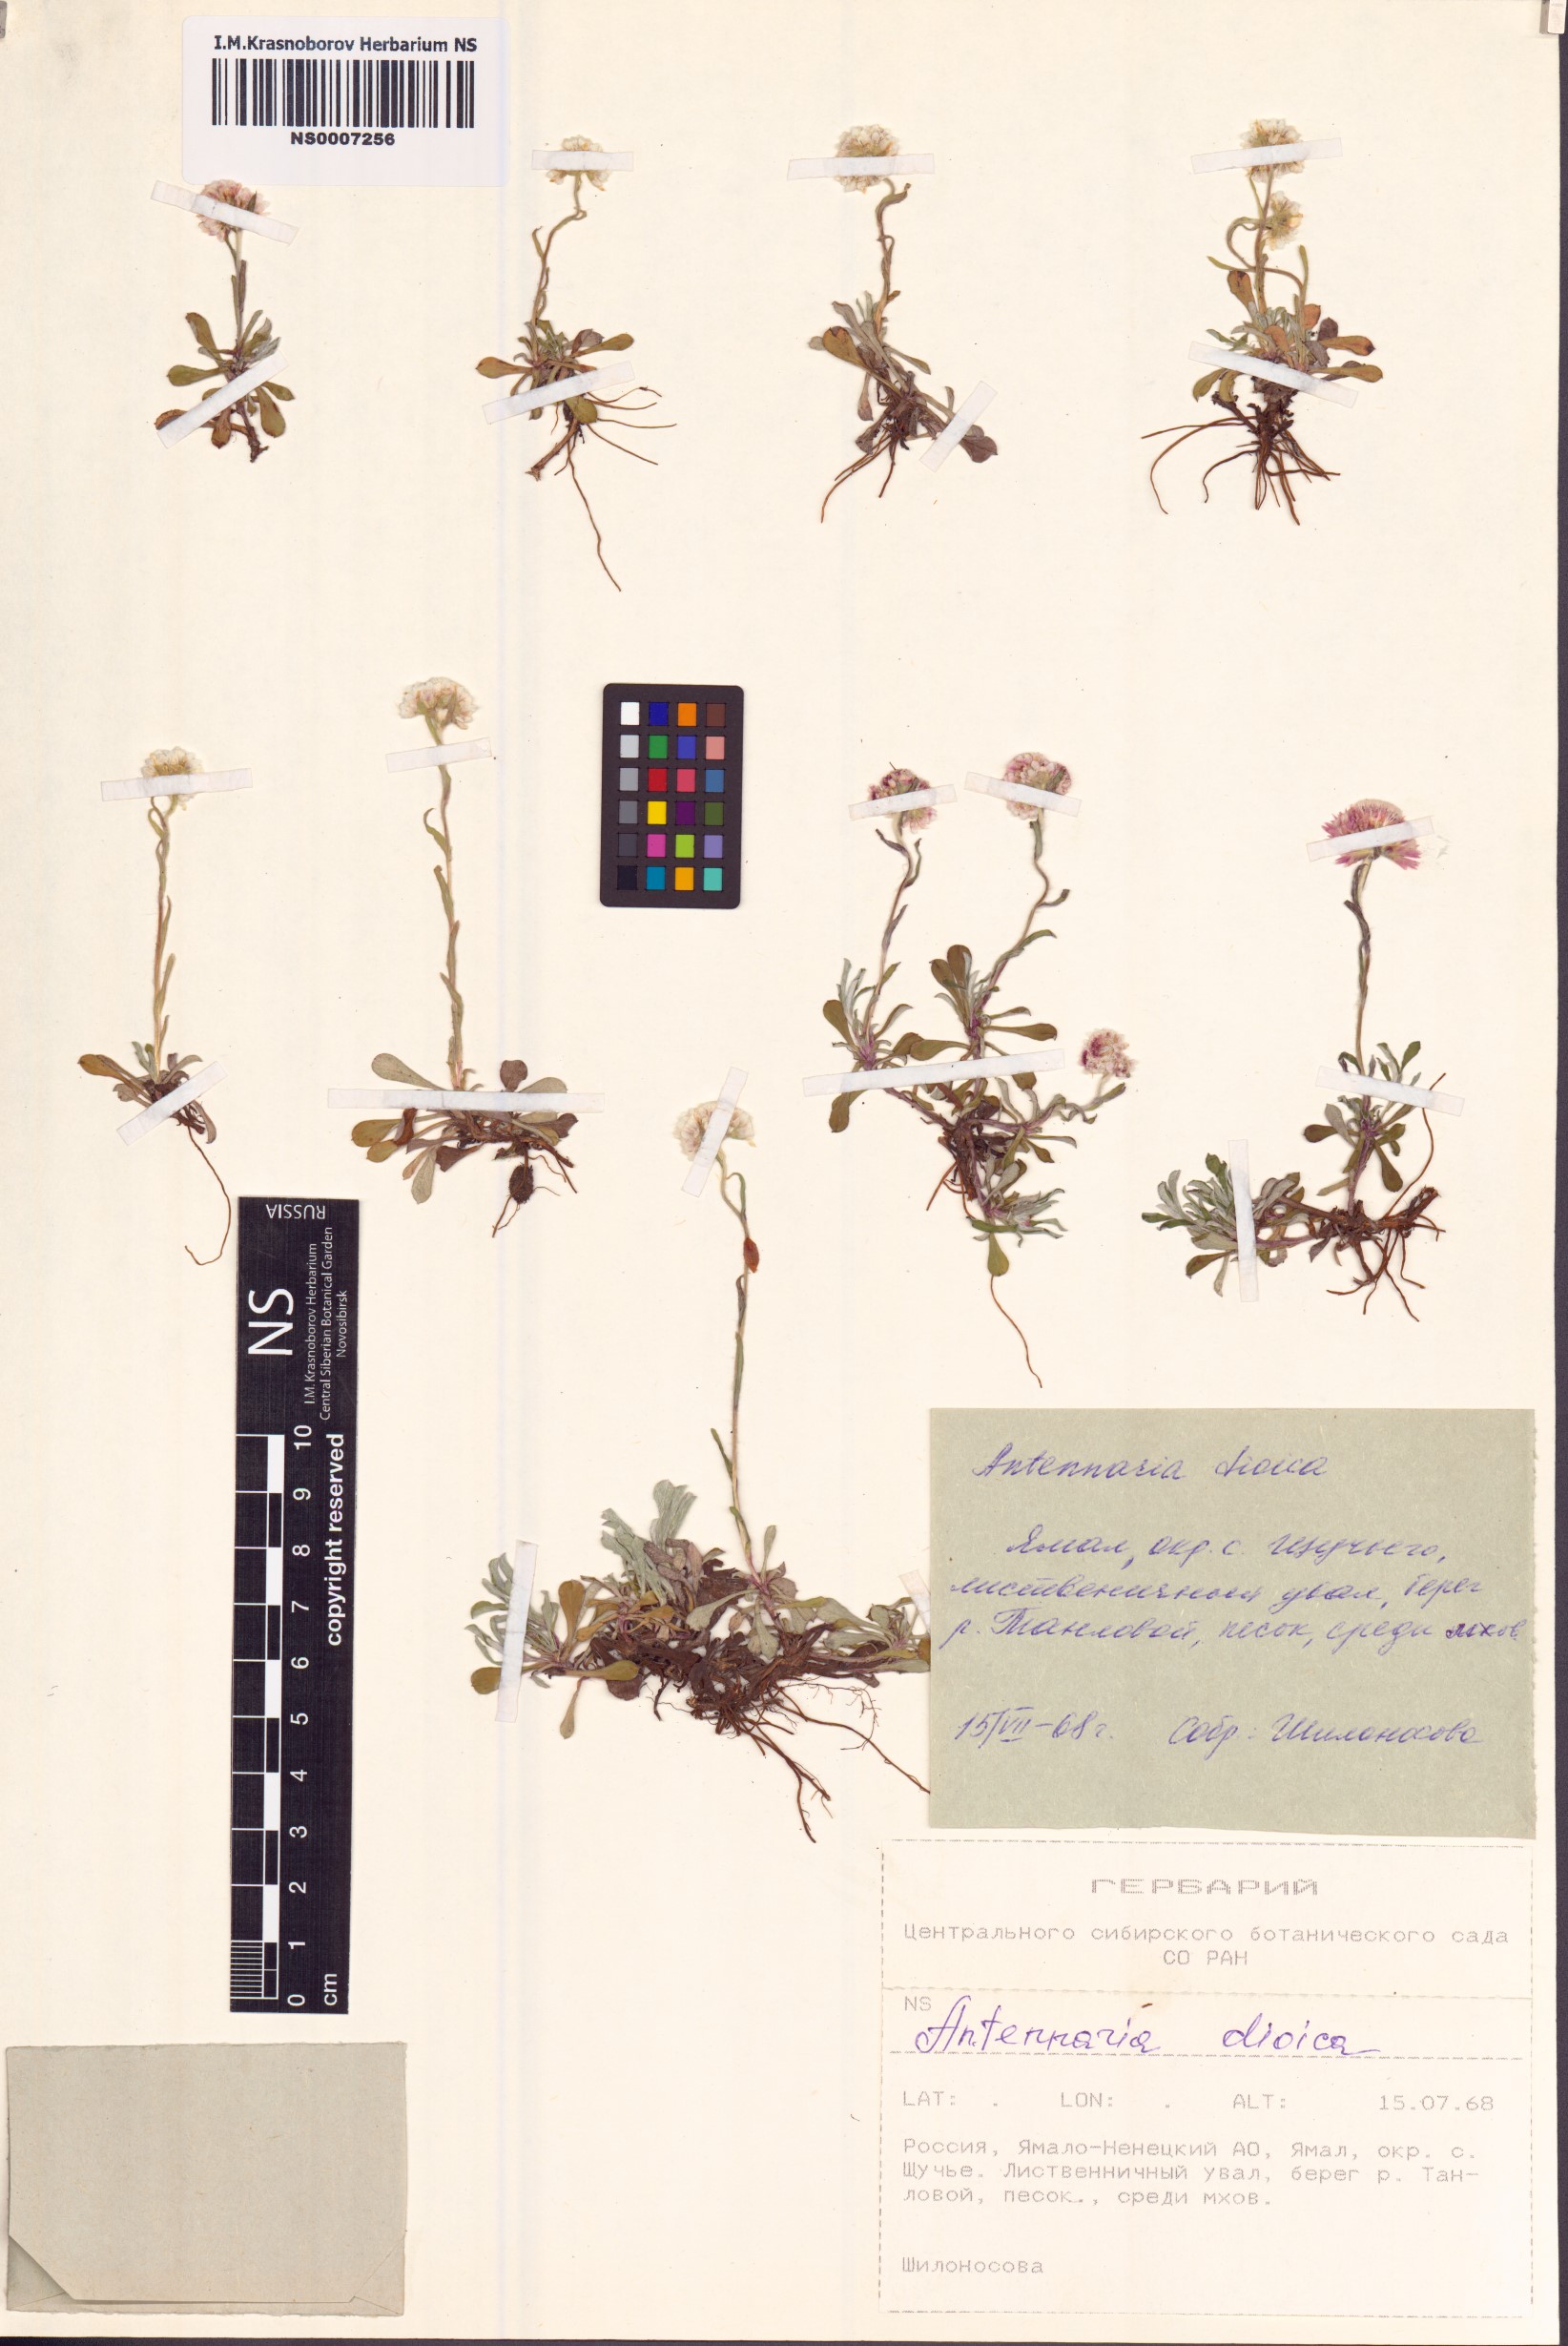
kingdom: Plantae
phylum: Tracheophyta
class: Magnoliopsida
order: Asterales
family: Asteraceae
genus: Antennaria
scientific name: Antennaria dioica
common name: Mountain everlasting
